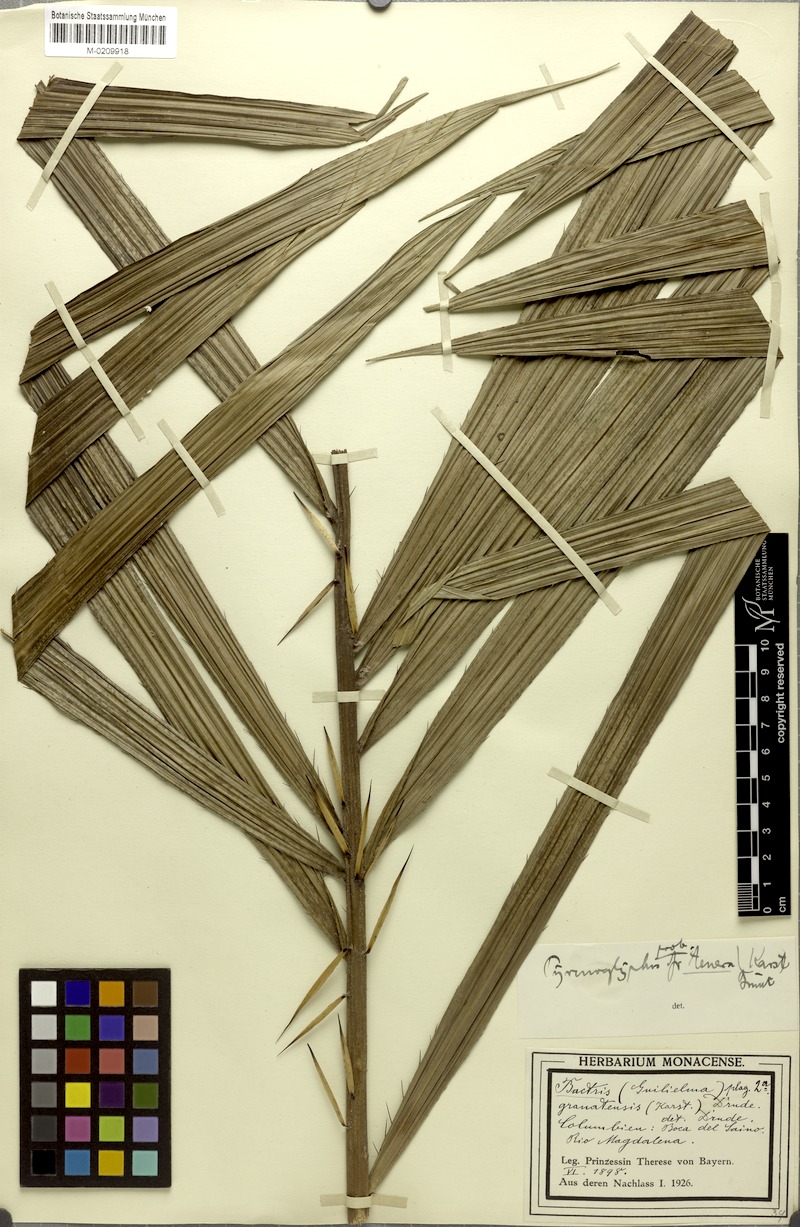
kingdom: Plantae
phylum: Tracheophyta
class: Liliopsida
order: Arecales
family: Arecaceae
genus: Bactris
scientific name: Bactris brongniartii
